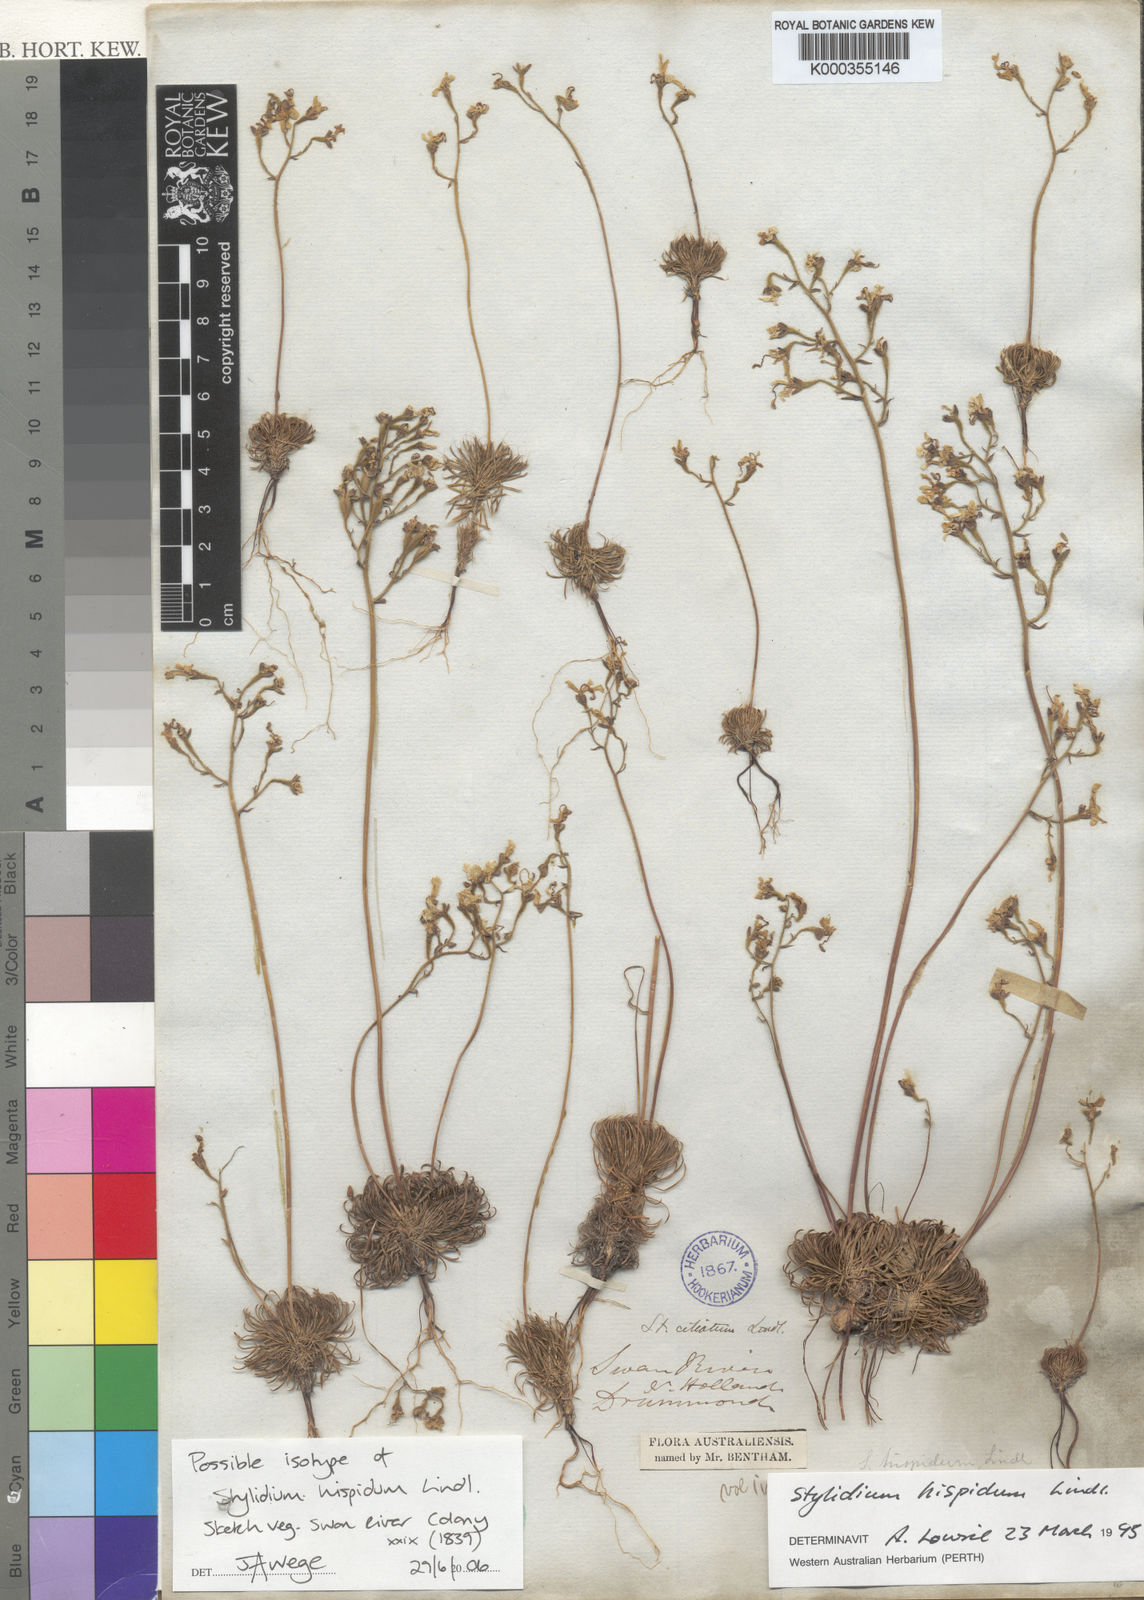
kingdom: Plantae
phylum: Tracheophyta
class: Magnoliopsida
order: Asterales
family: Stylidiaceae
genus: Stylidium
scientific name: Stylidium hispidum
